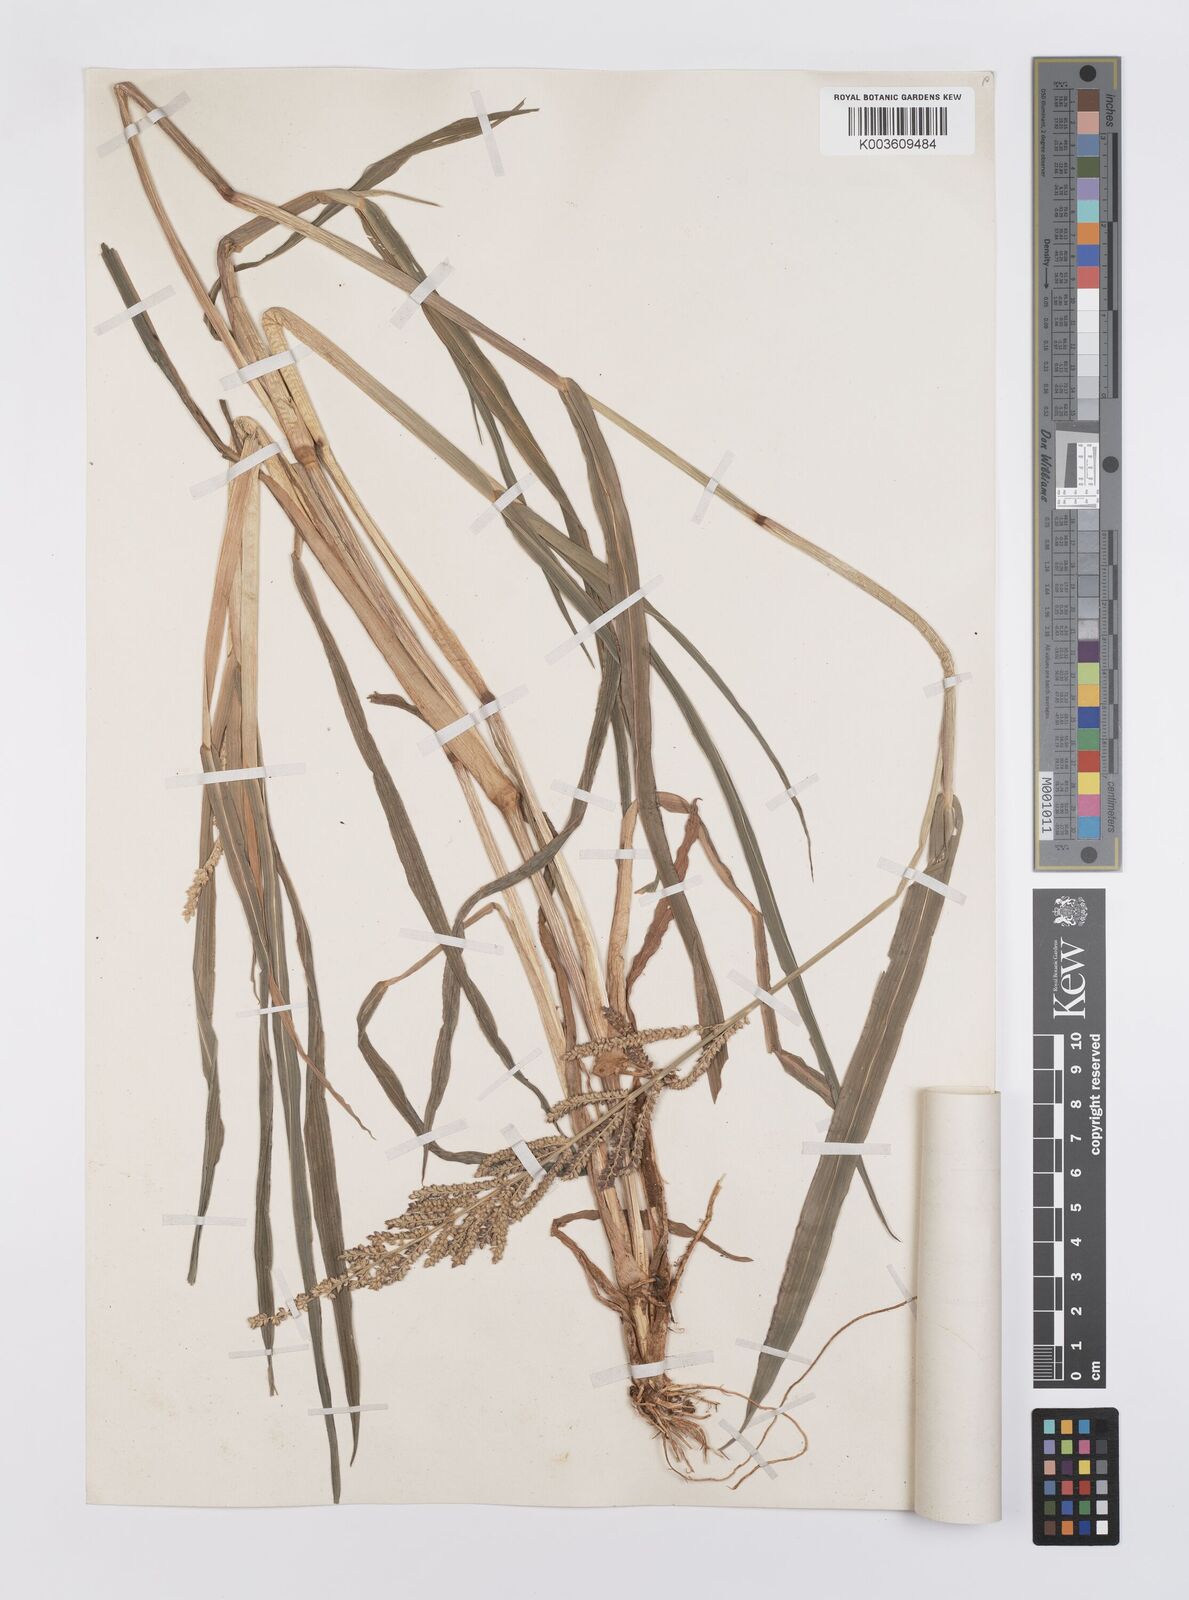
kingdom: Plantae
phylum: Tracheophyta
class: Liliopsida
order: Poales
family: Poaceae
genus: Echinochloa
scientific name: Echinochloa haploclada
